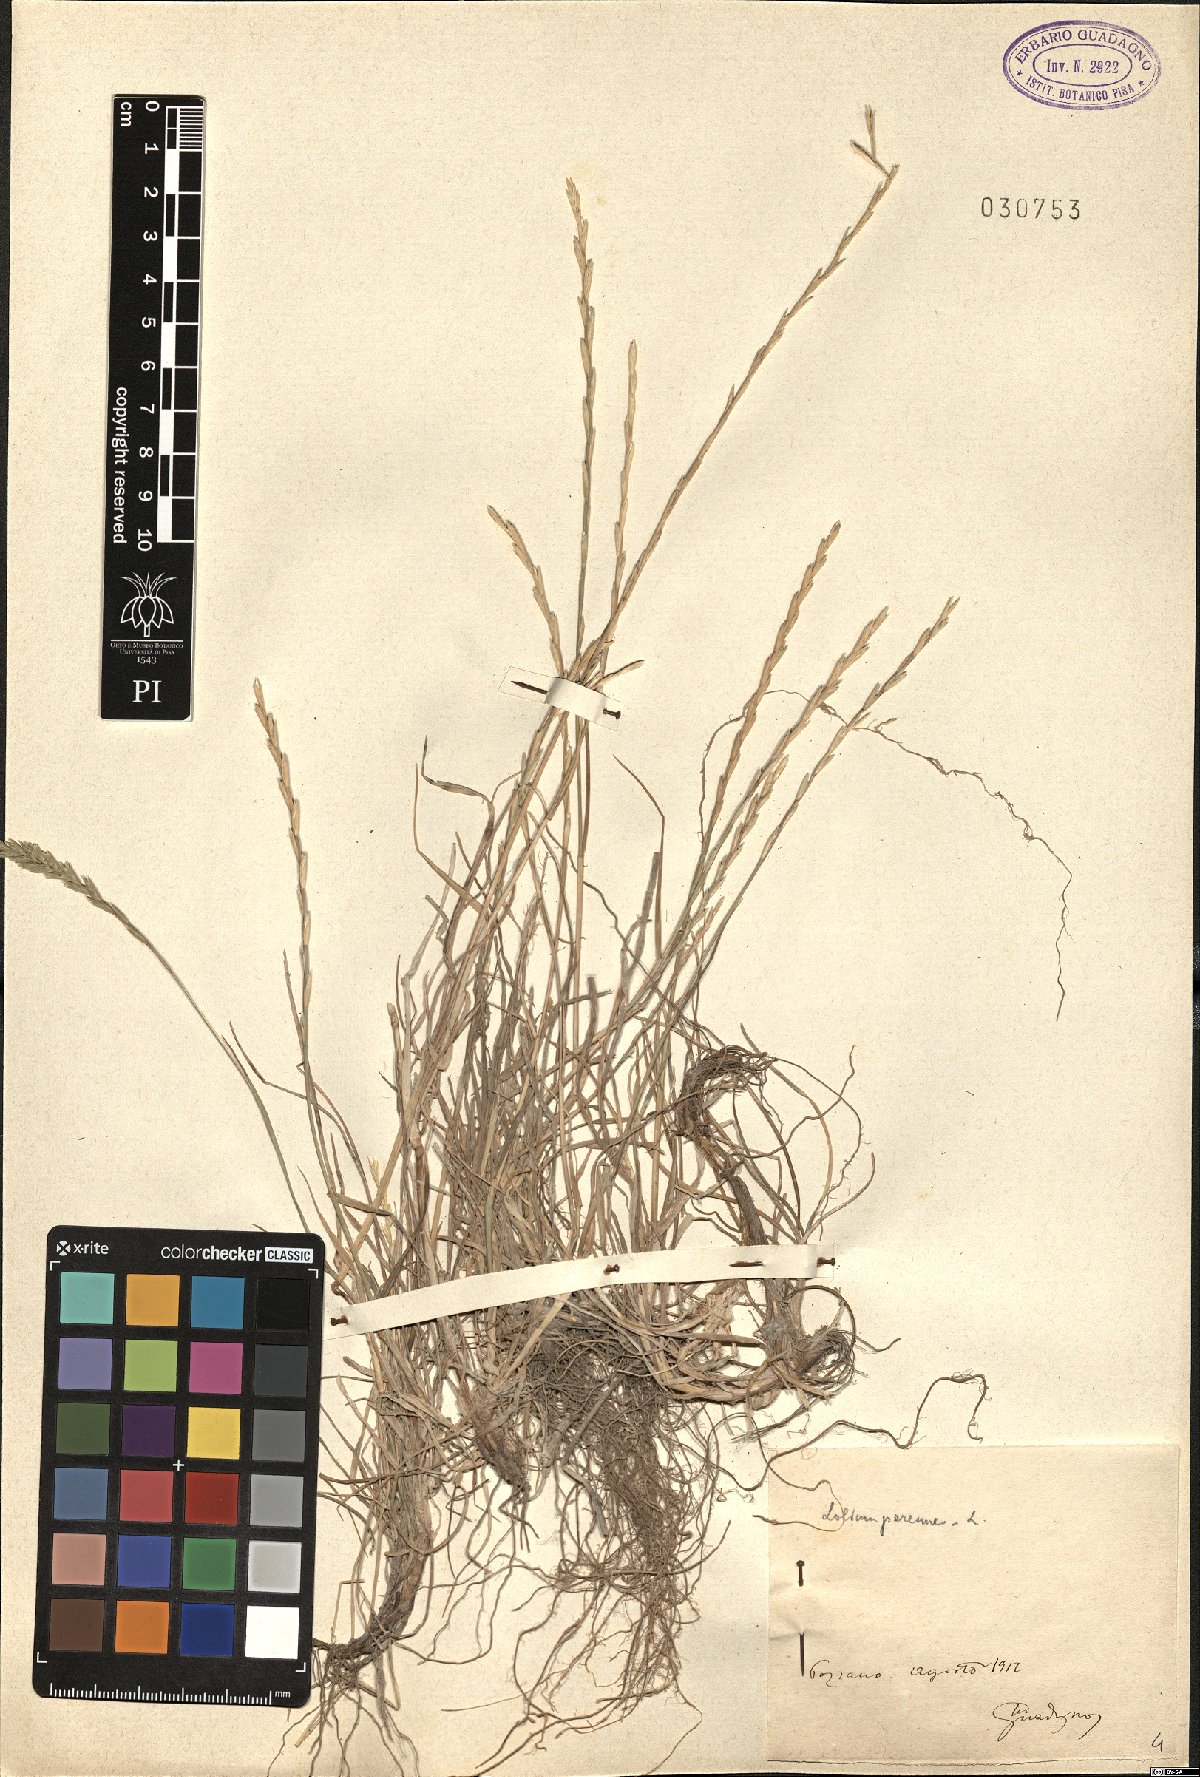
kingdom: Plantae
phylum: Tracheophyta
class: Liliopsida
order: Poales
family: Poaceae
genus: Lolium
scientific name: Lolium perenne
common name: Perennial ryegrass
